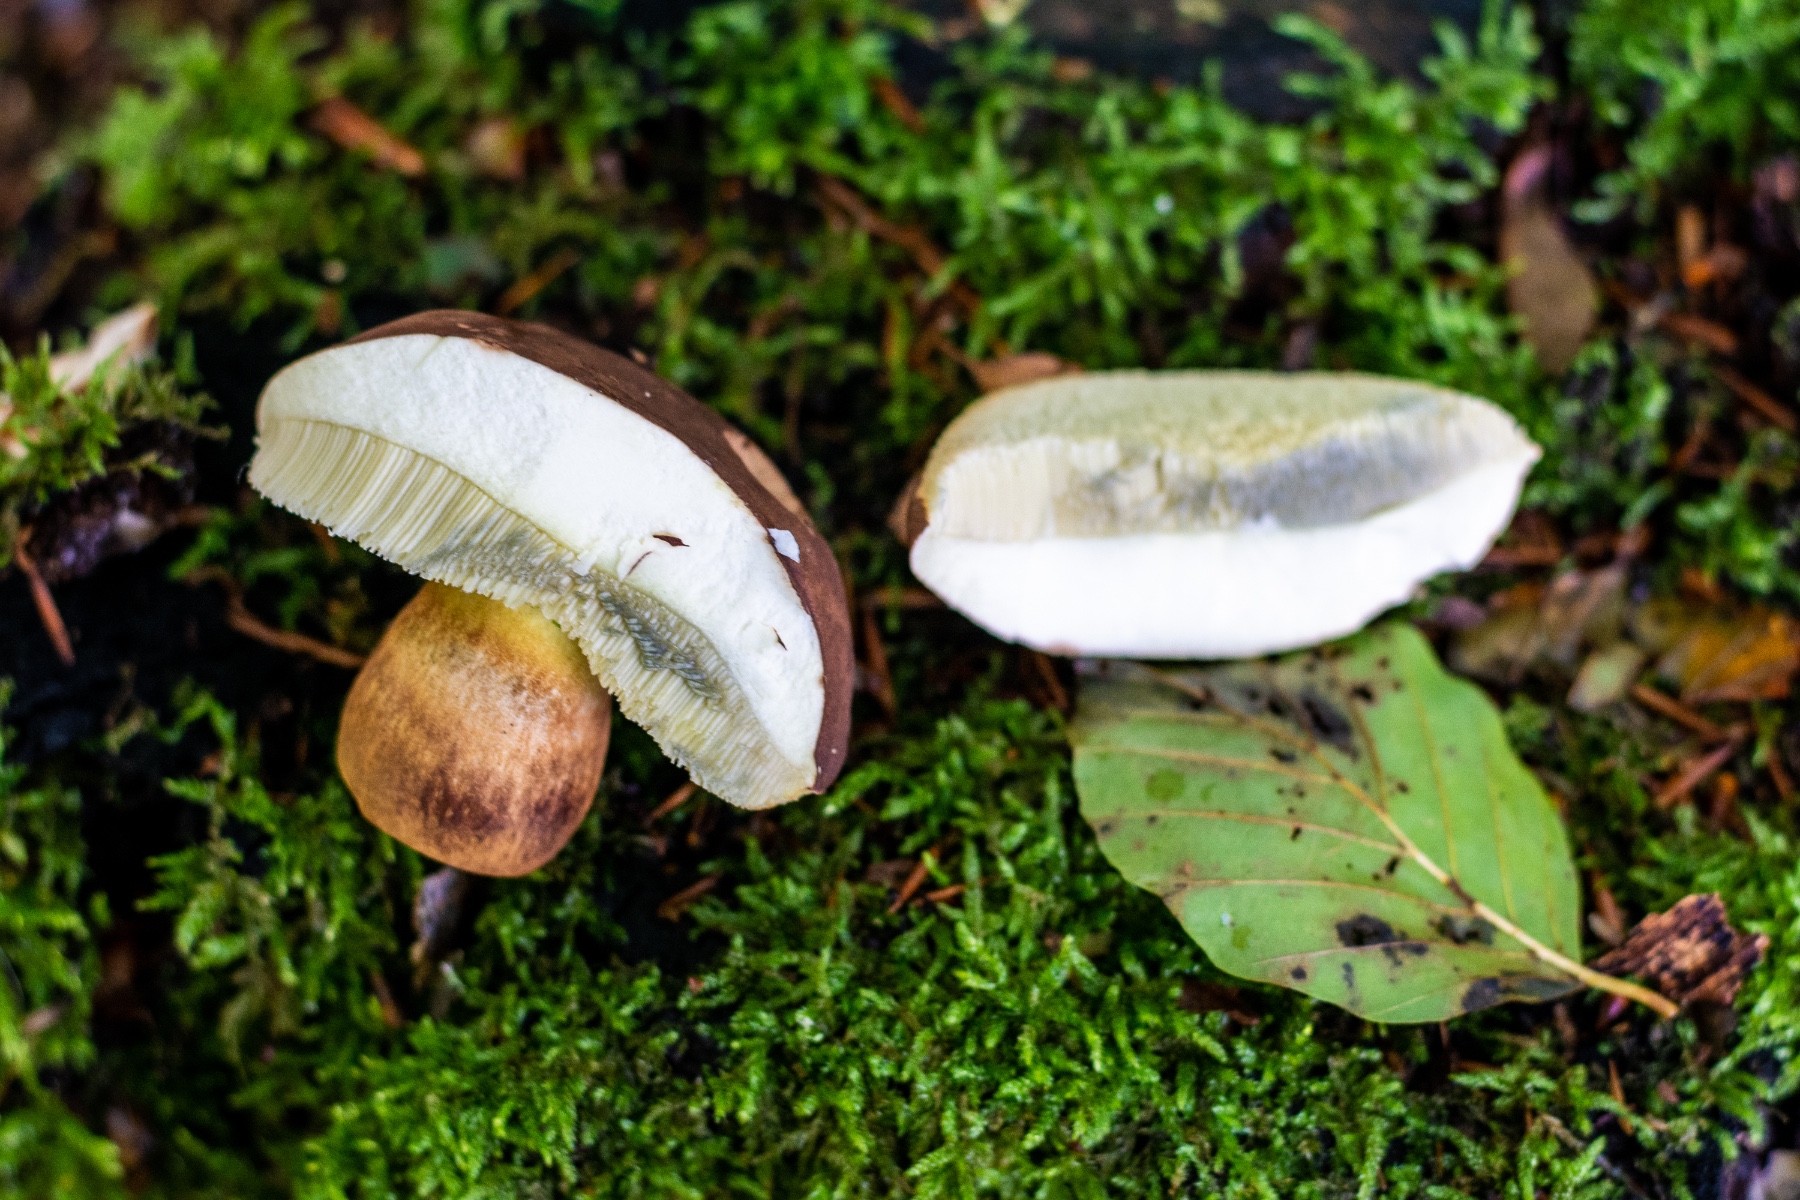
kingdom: Fungi
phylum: Basidiomycota
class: Agaricomycetes
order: Boletales
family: Boletaceae
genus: Imleria
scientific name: Imleria badia
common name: brunstokket rørhat
